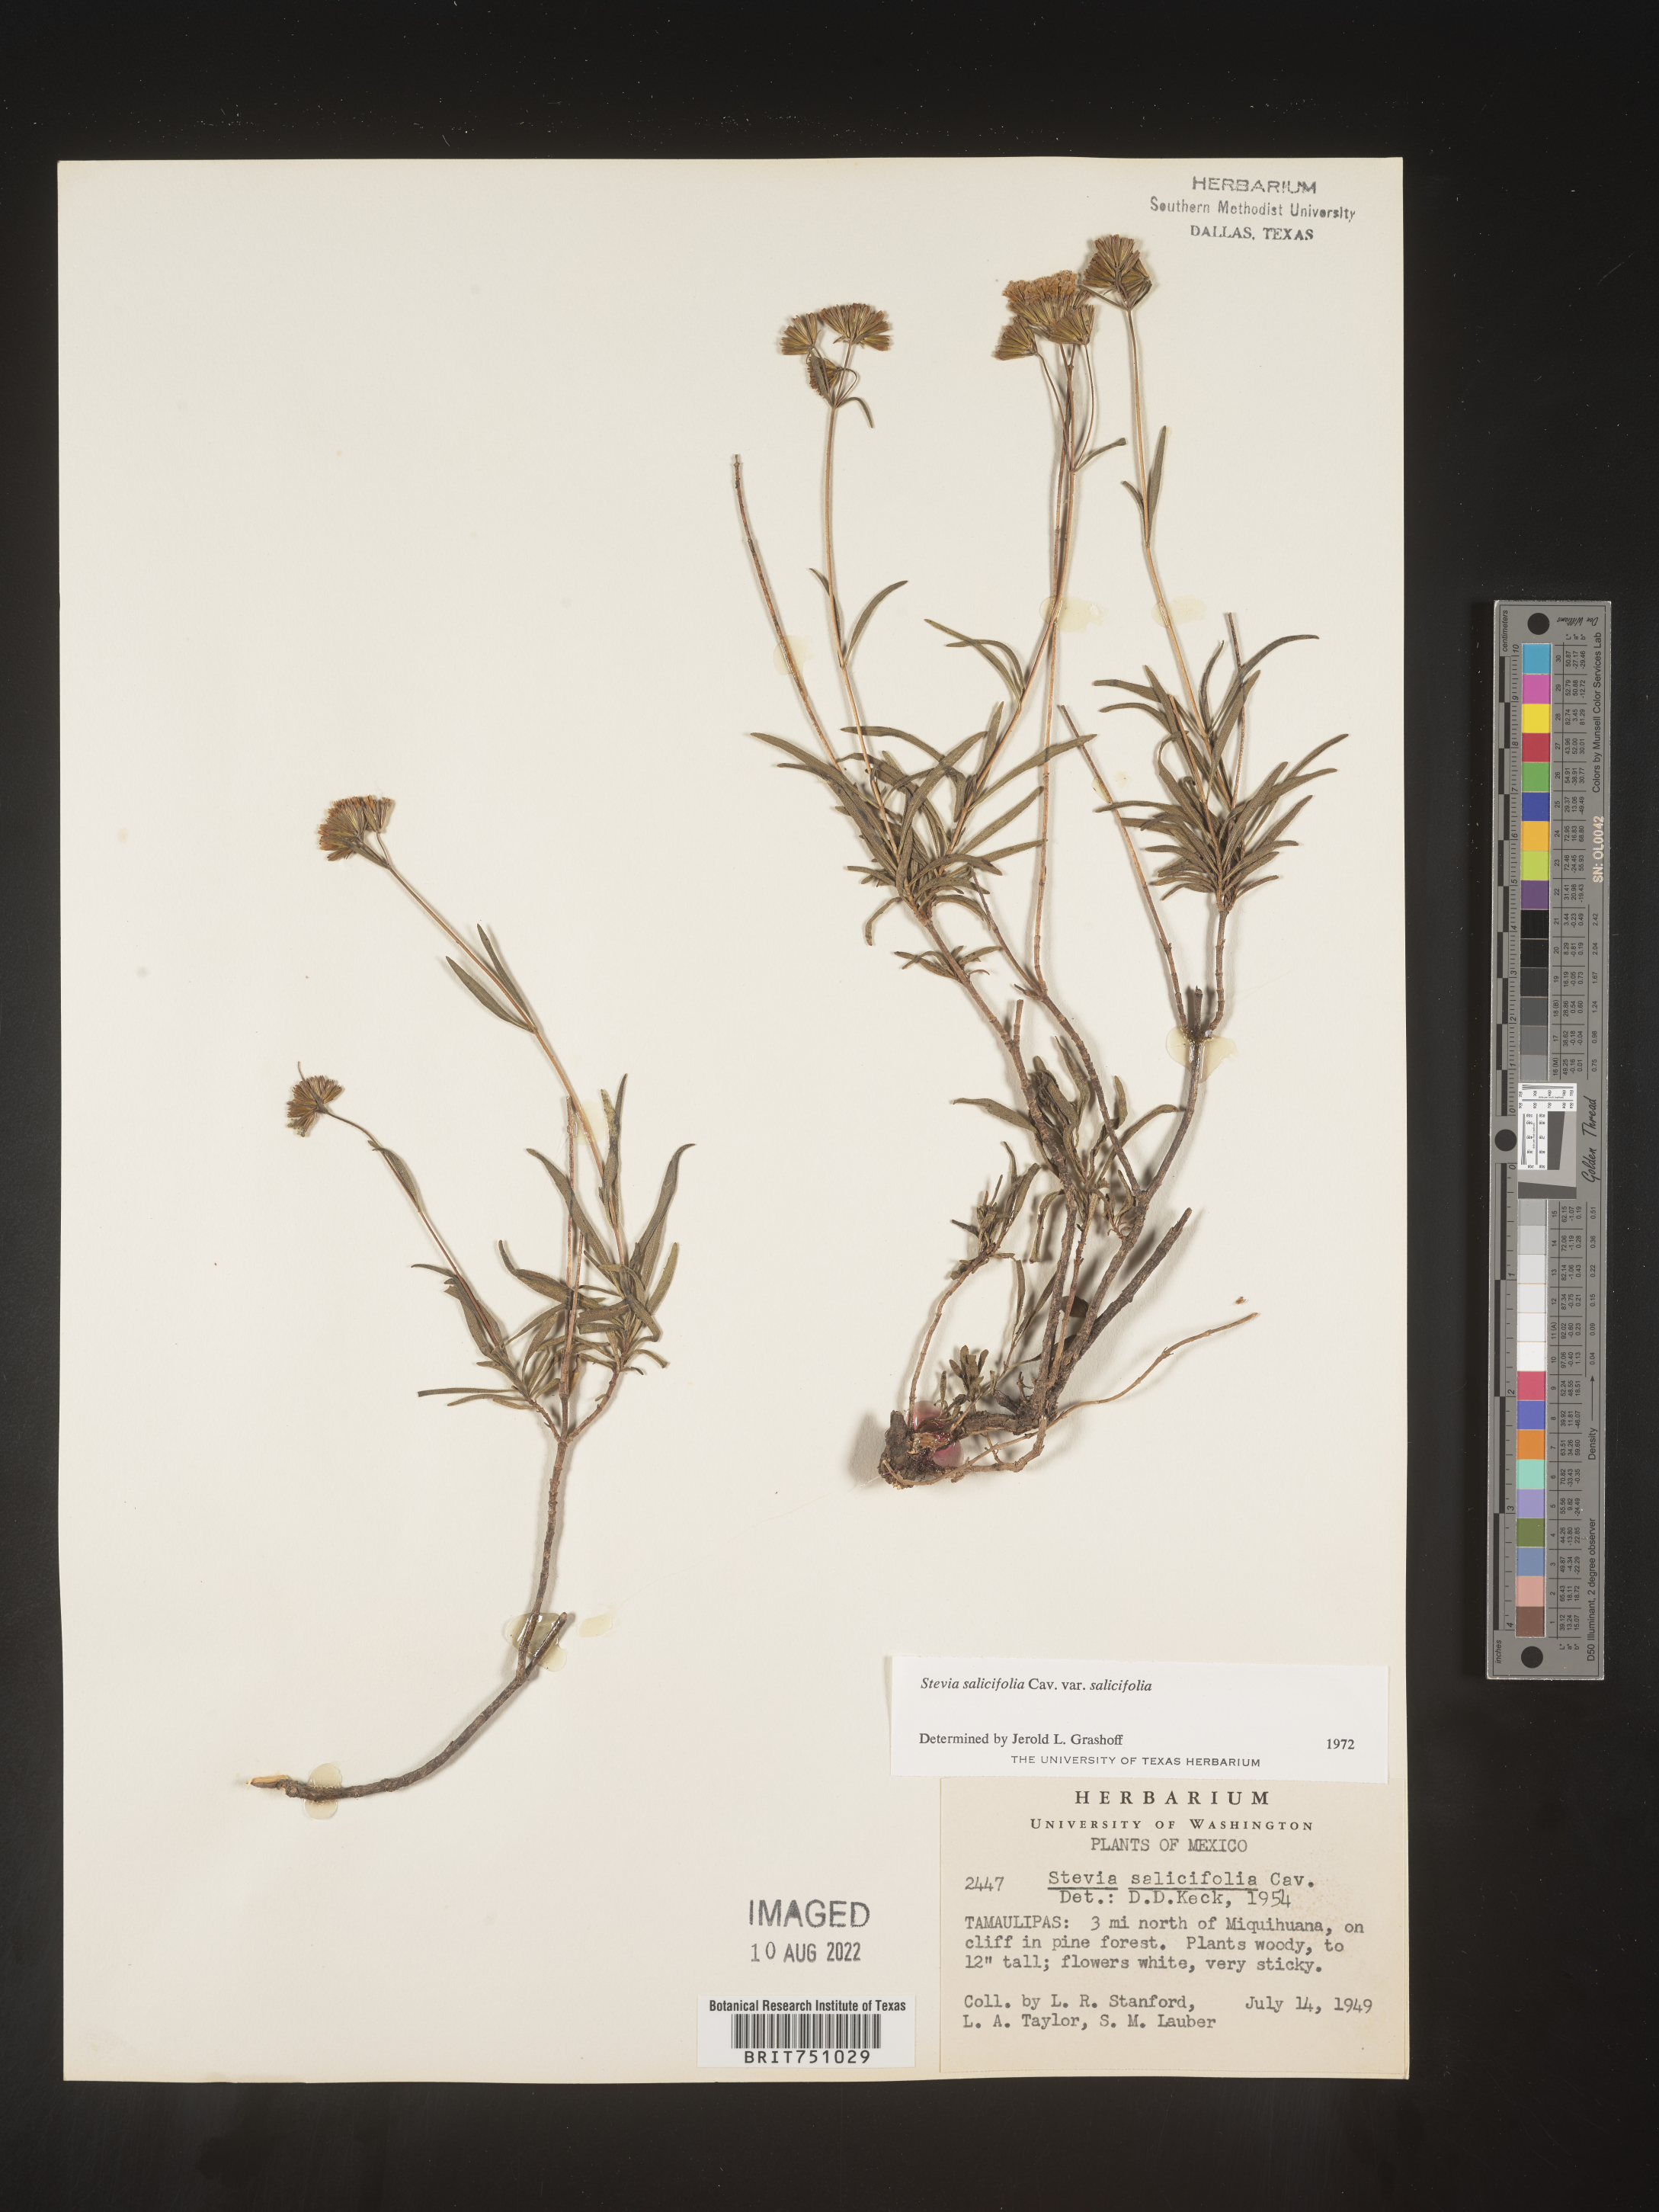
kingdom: Plantae
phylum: Tracheophyta
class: Magnoliopsida
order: Asterales
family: Asteraceae
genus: Stevia
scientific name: Stevia salicifolia
